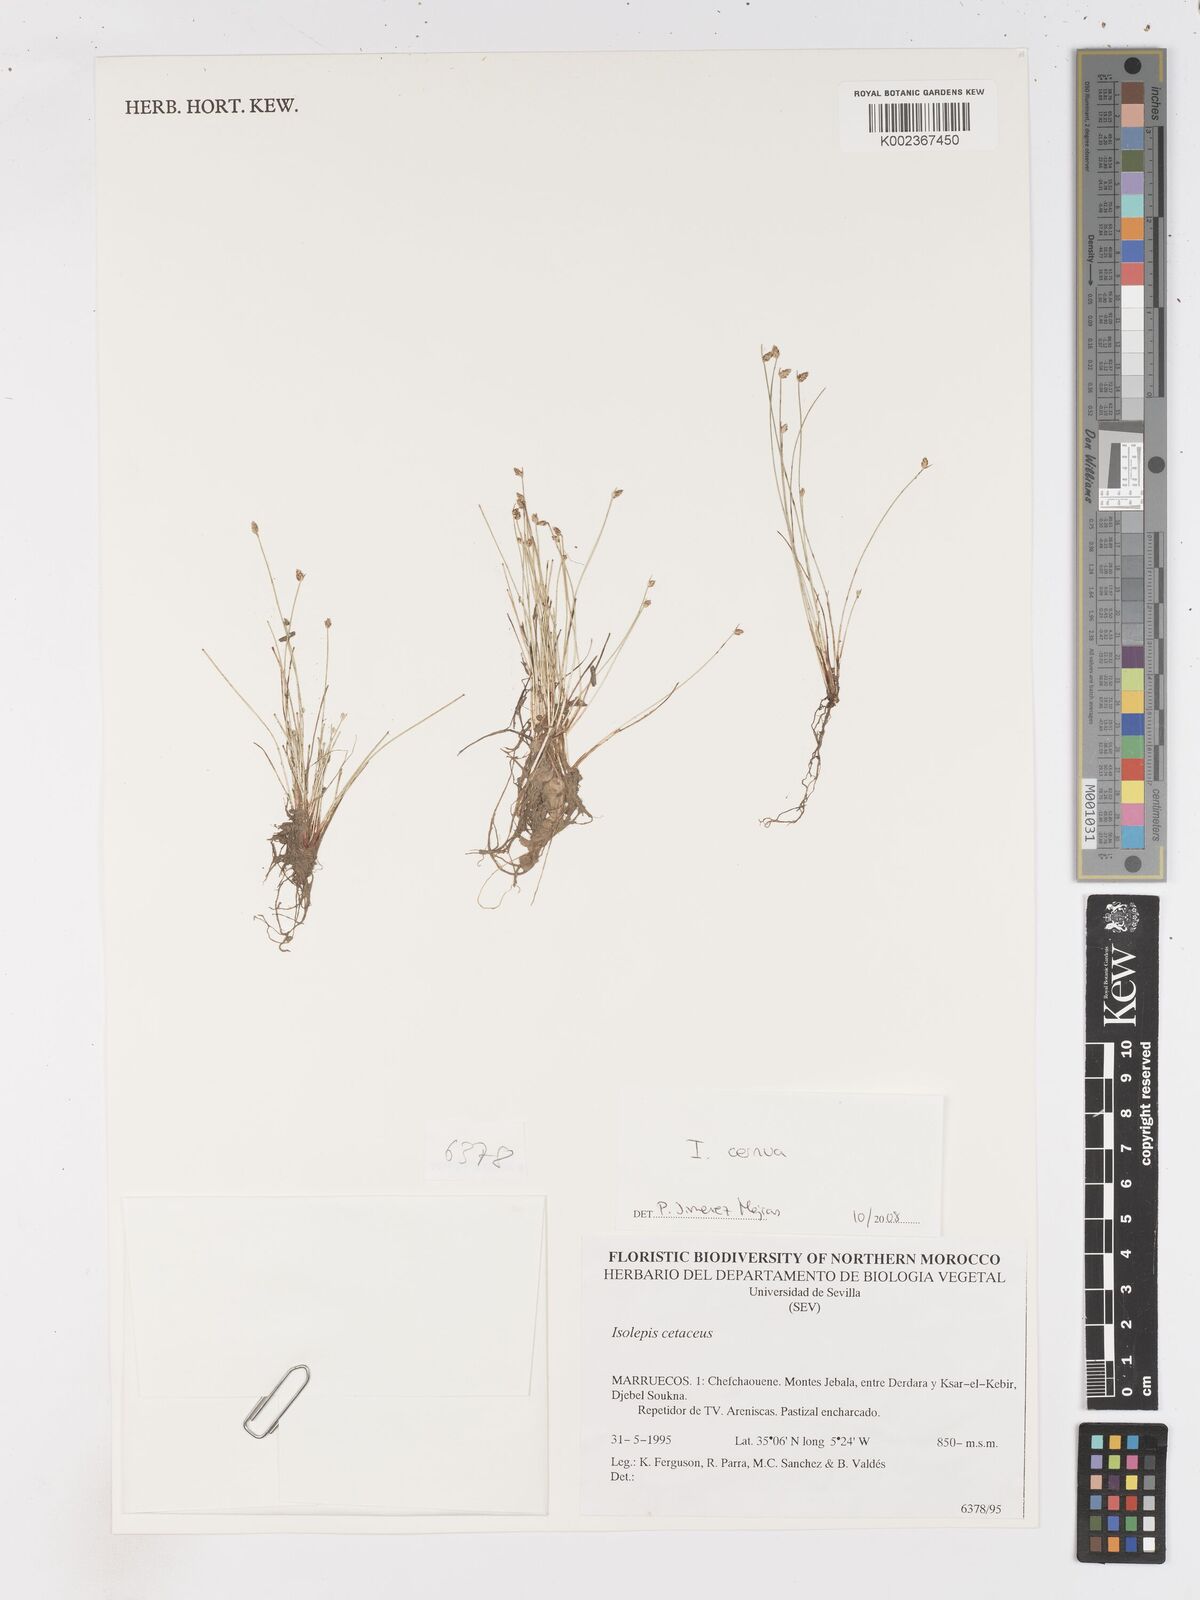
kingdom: Plantae
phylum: Tracheophyta
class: Liliopsida
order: Poales
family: Cyperaceae
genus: Isolepis
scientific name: Isolepis cernua
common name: Slender club-rush
